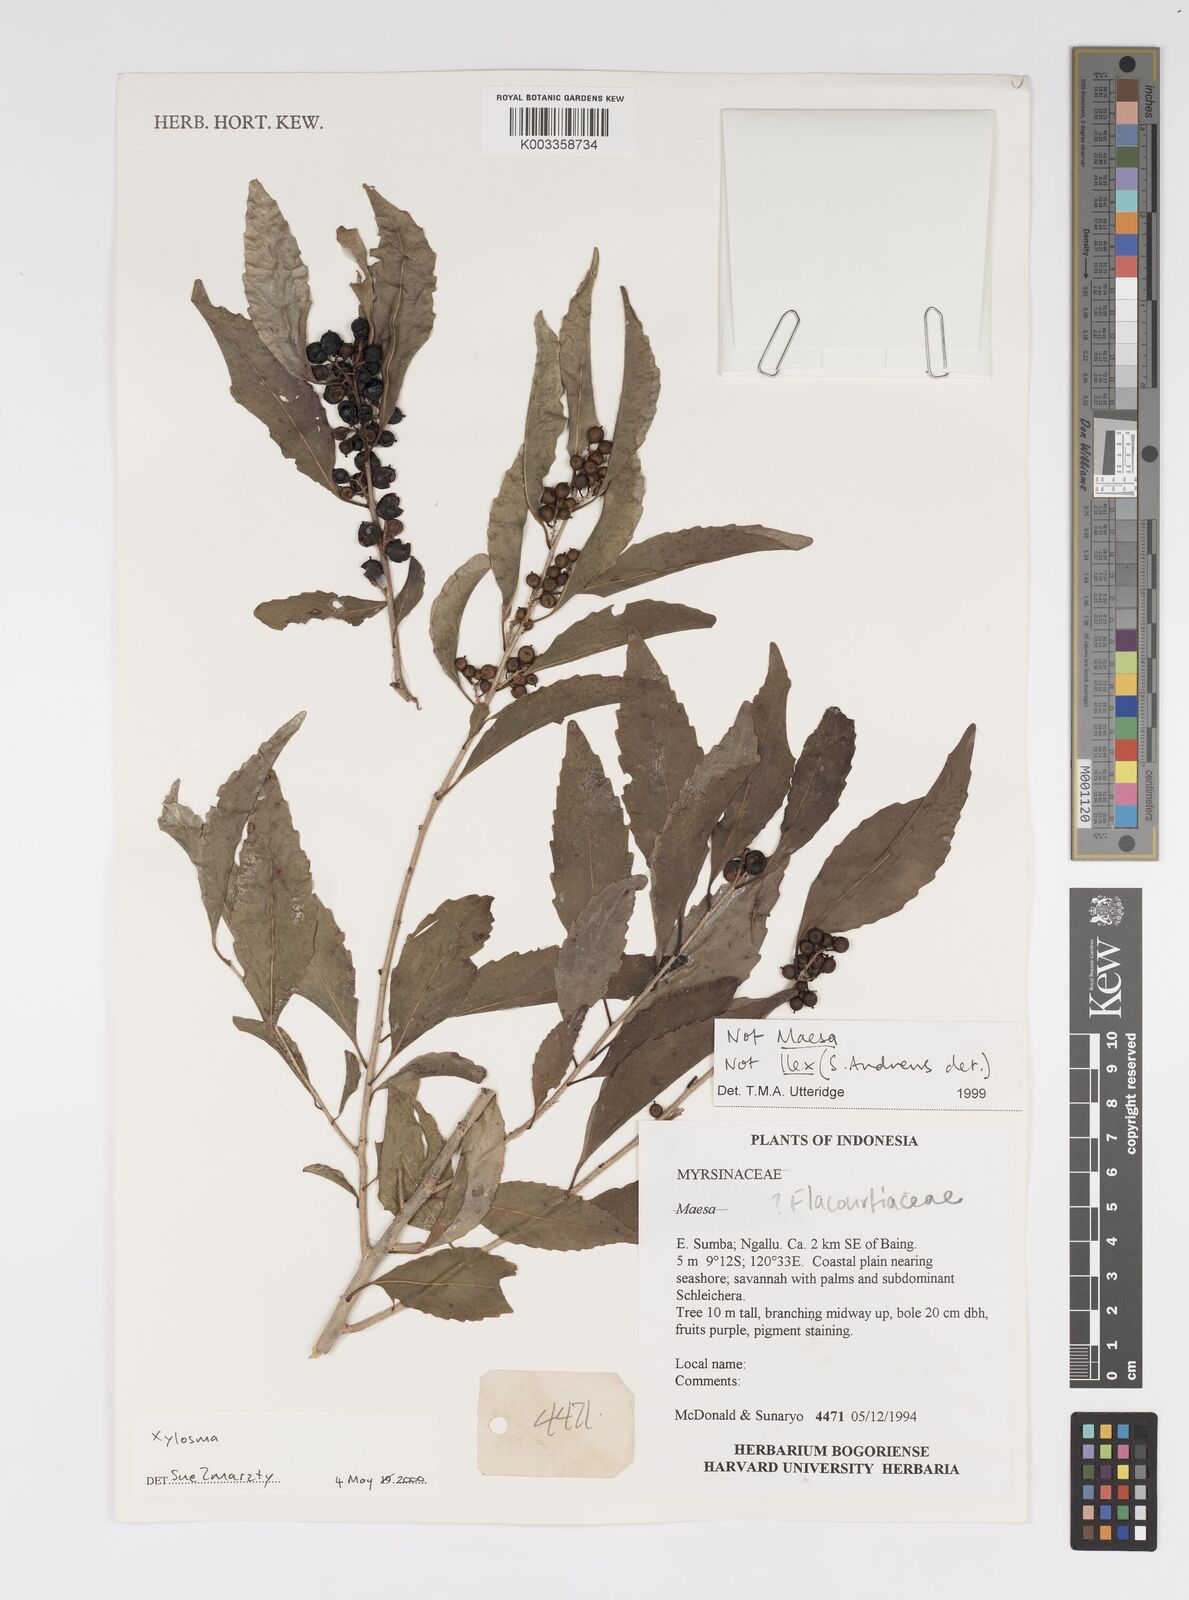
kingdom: Plantae
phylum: Tracheophyta
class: Magnoliopsida
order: Malpighiales
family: Salicaceae
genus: Xylosma
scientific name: Xylosma
